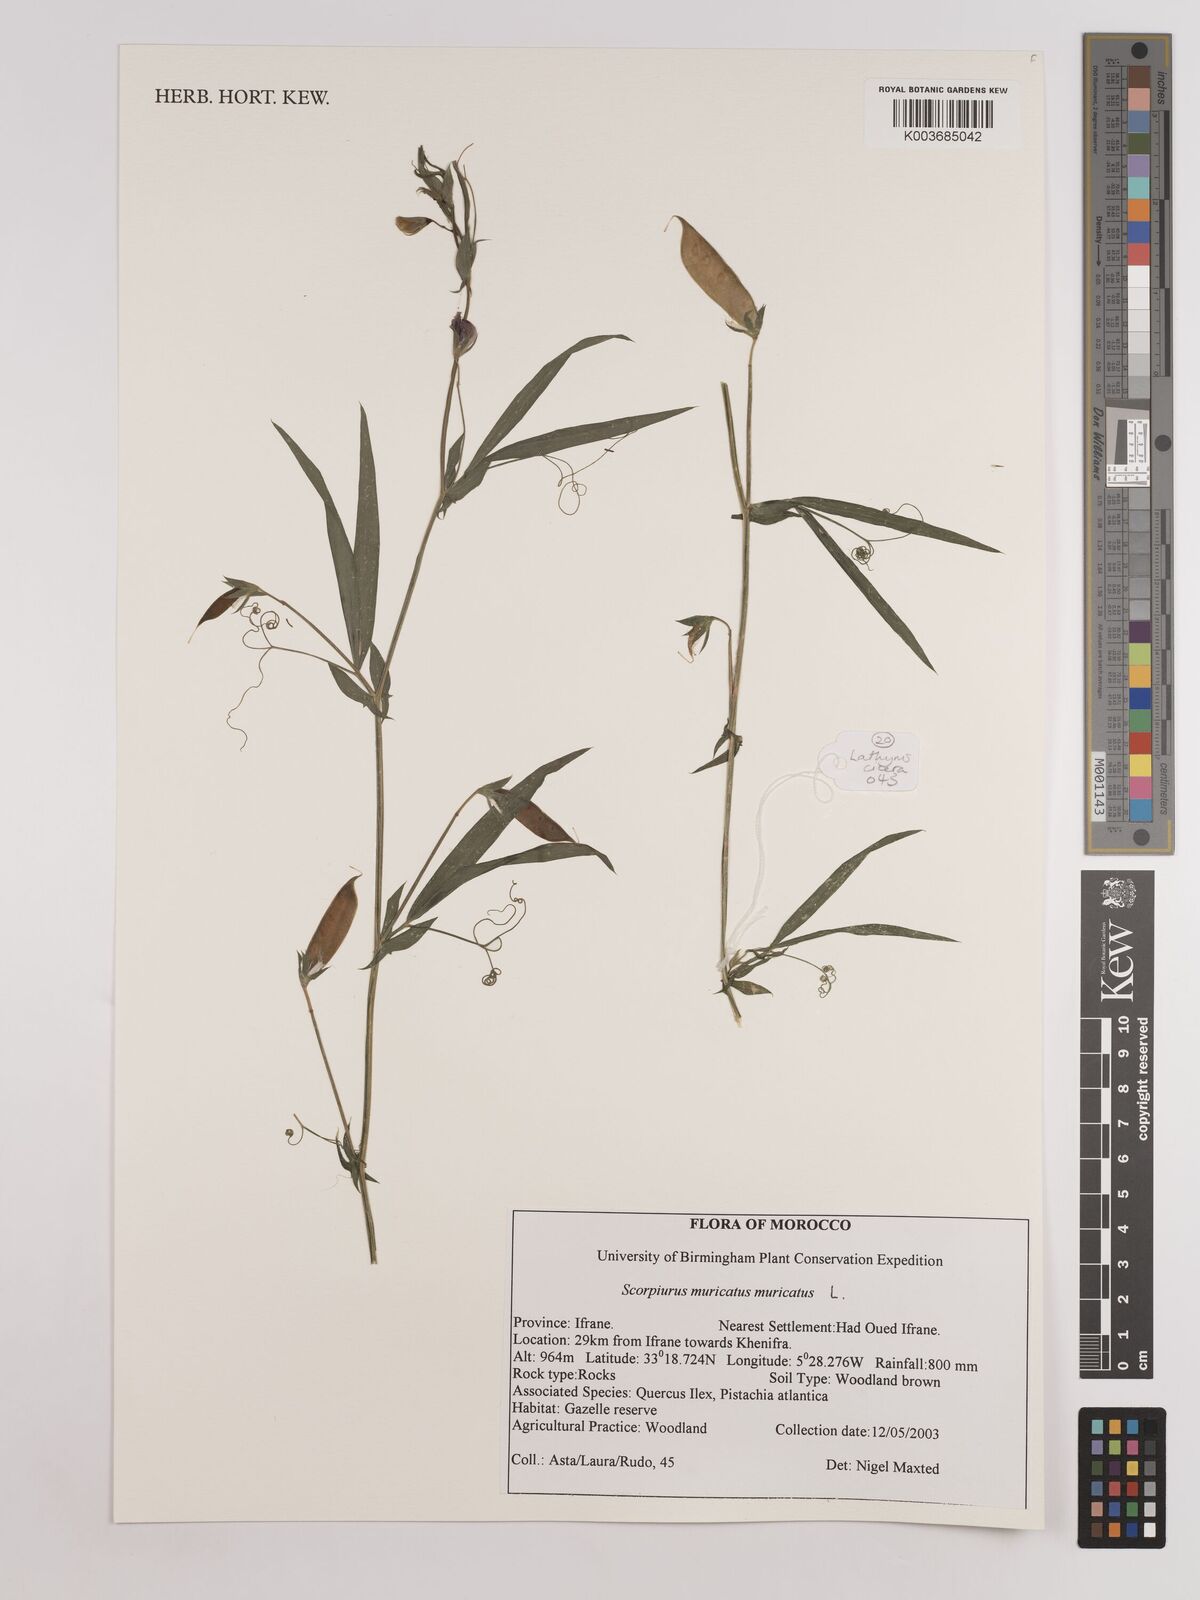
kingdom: Plantae
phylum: Tracheophyta
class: Magnoliopsida
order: Fabales
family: Fabaceae
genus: Scorpiurus
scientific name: Scorpiurus muricatus
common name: Caterpillar-plant
